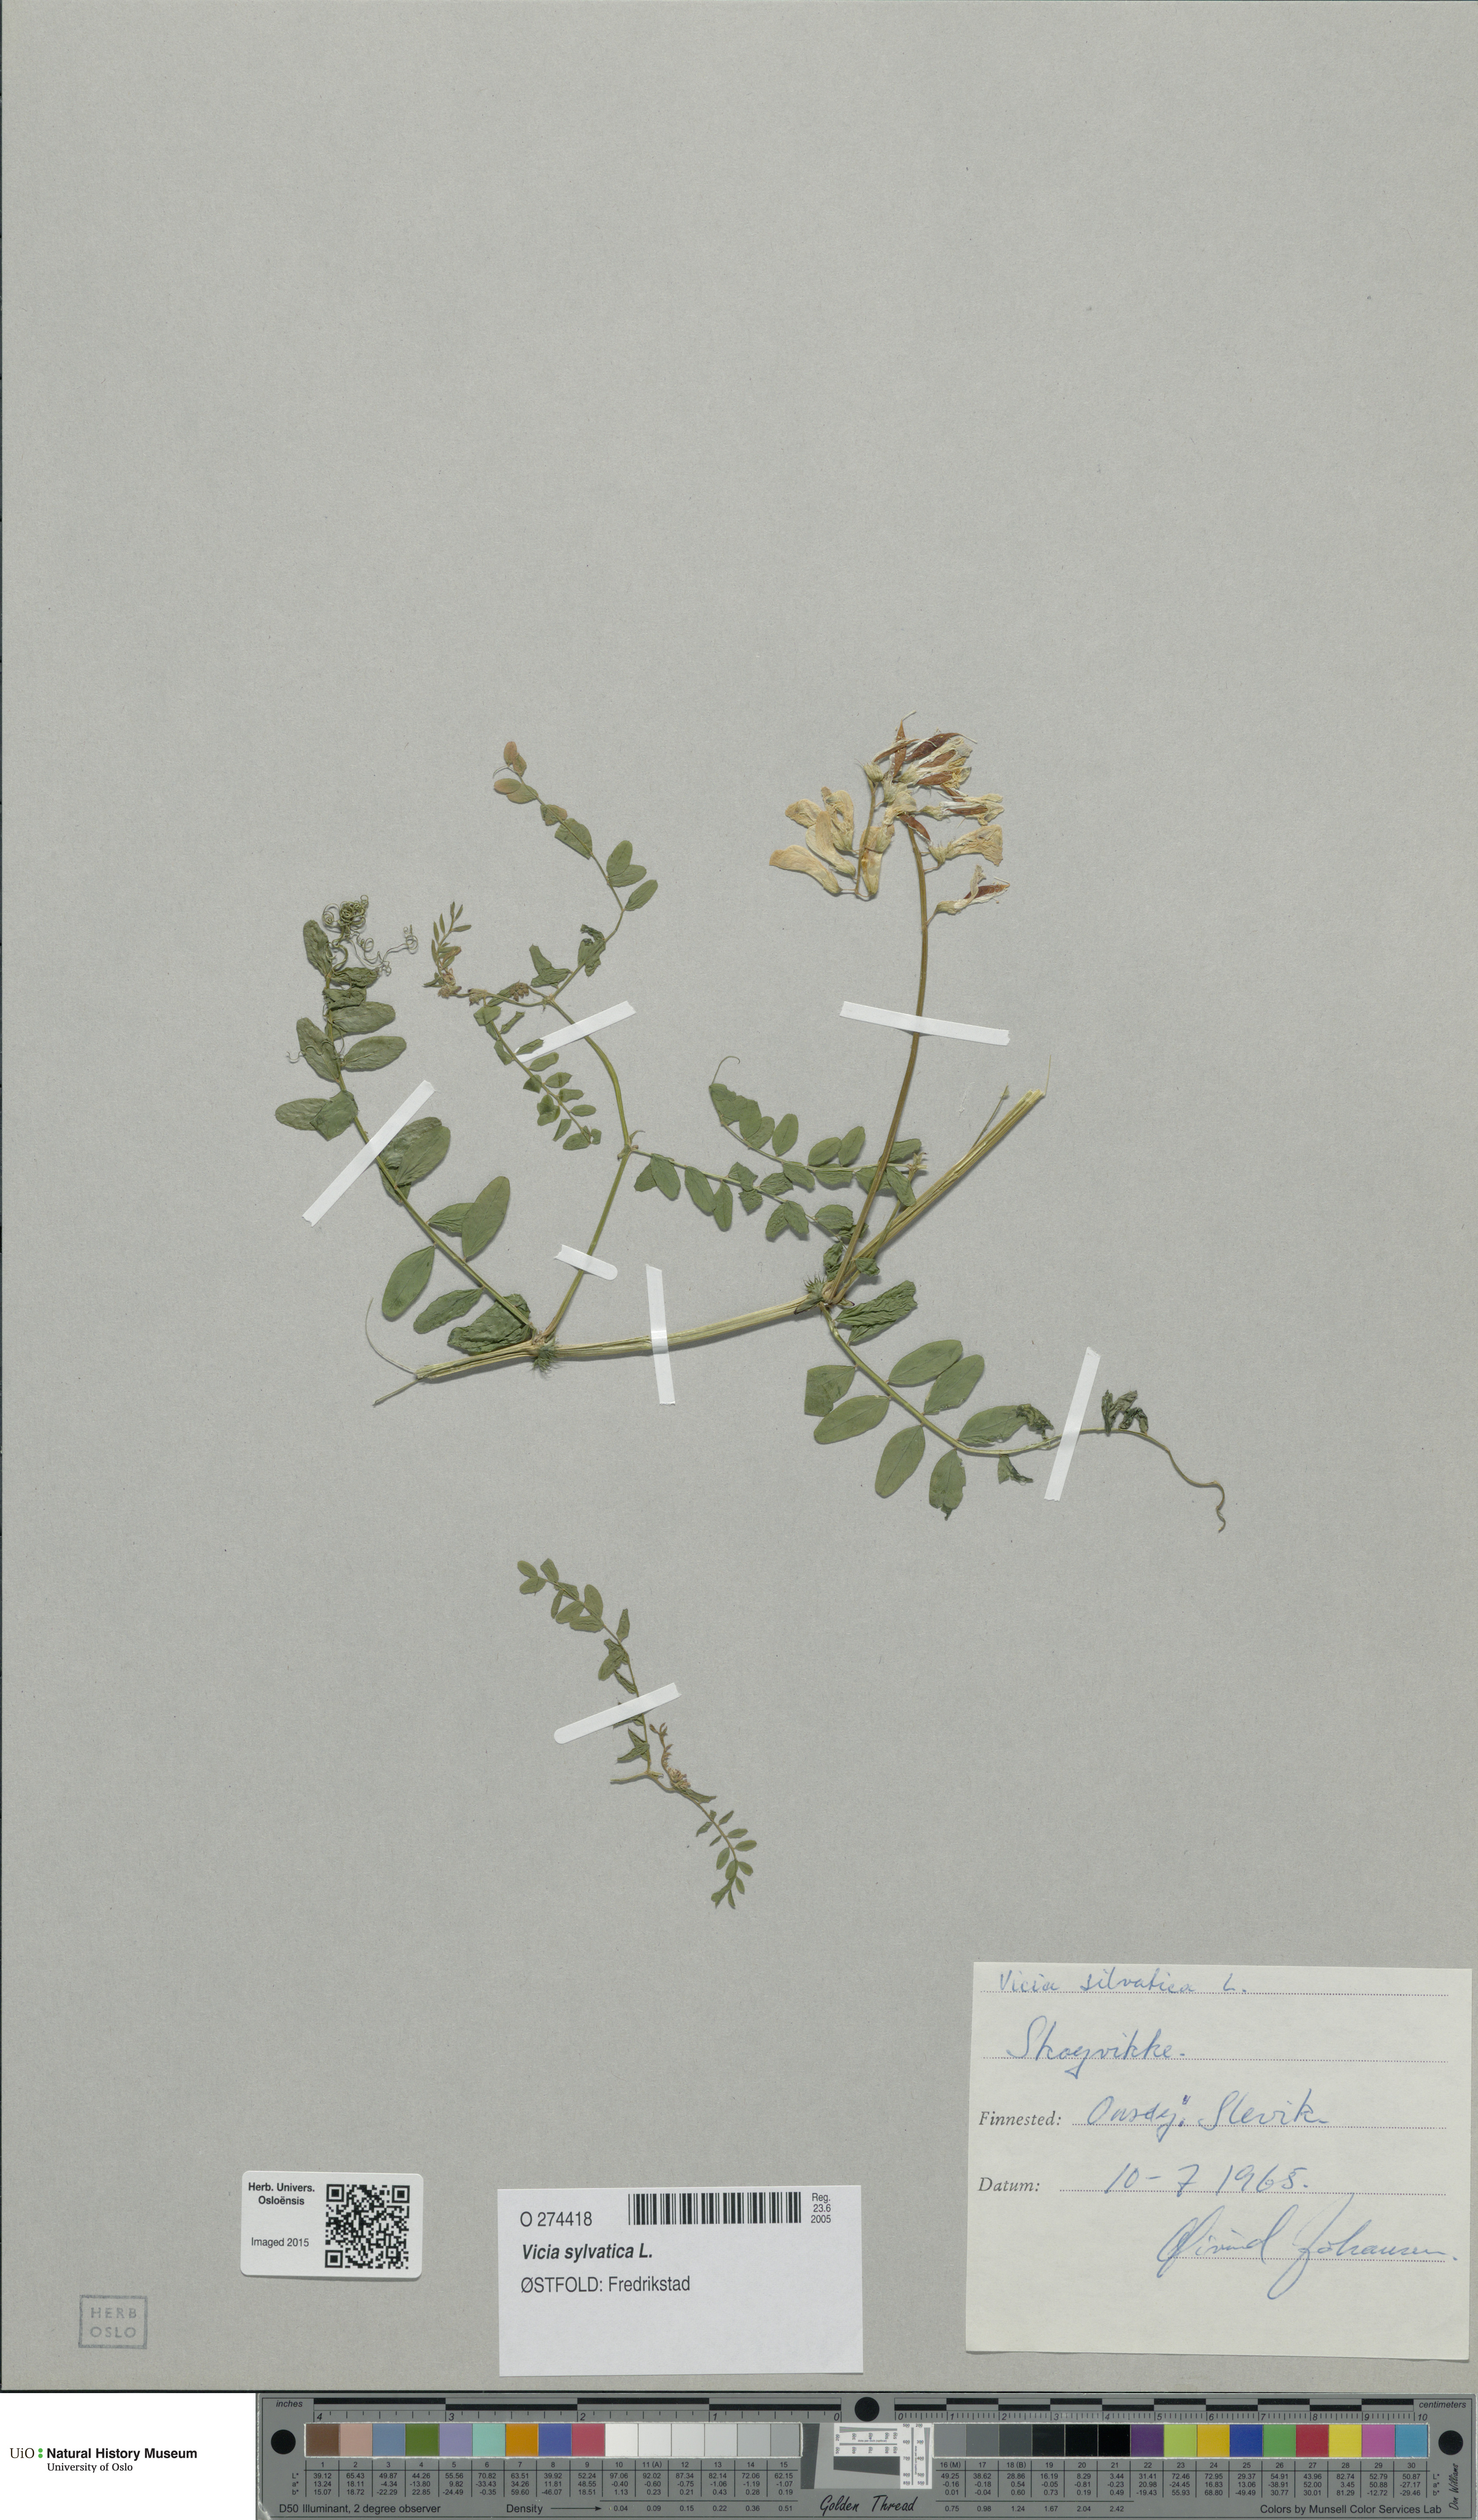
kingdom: Plantae
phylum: Tracheophyta
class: Magnoliopsida
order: Fabales
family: Fabaceae
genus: Vicia
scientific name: Vicia sylvatica
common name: Wood vetch
